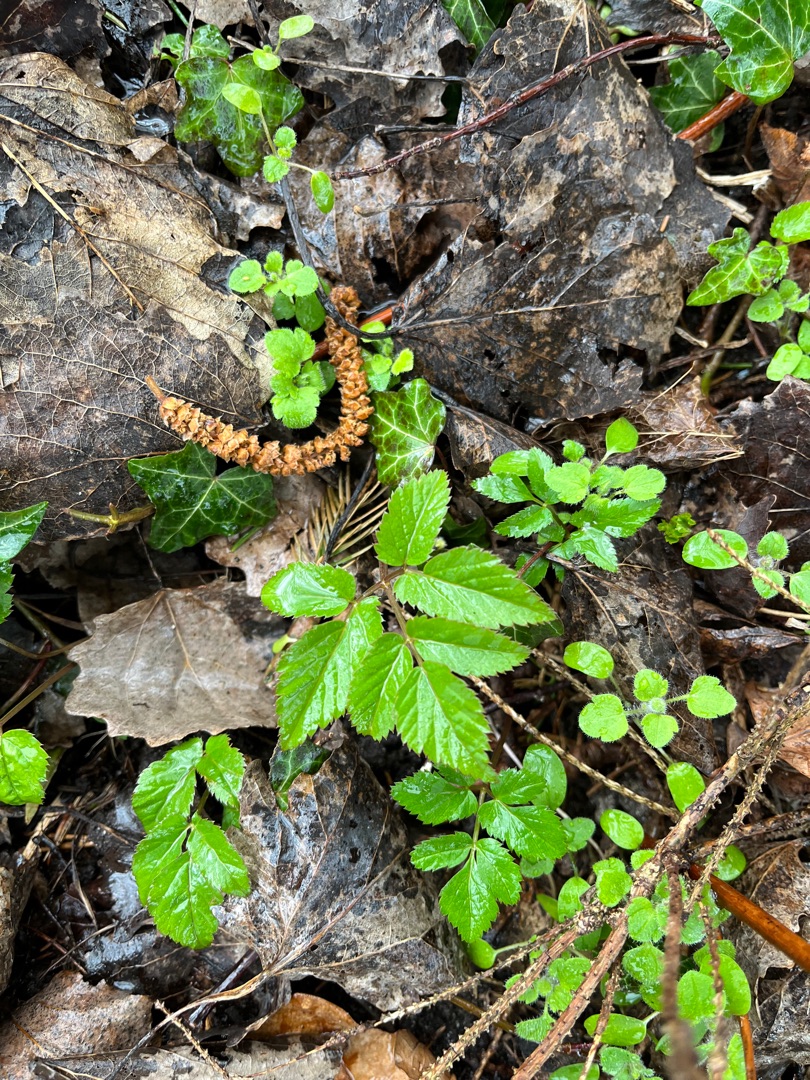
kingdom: Plantae
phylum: Tracheophyta
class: Magnoliopsida
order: Apiales
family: Apiaceae
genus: Aegopodium
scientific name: Aegopodium podagraria
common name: Skvalderkål
